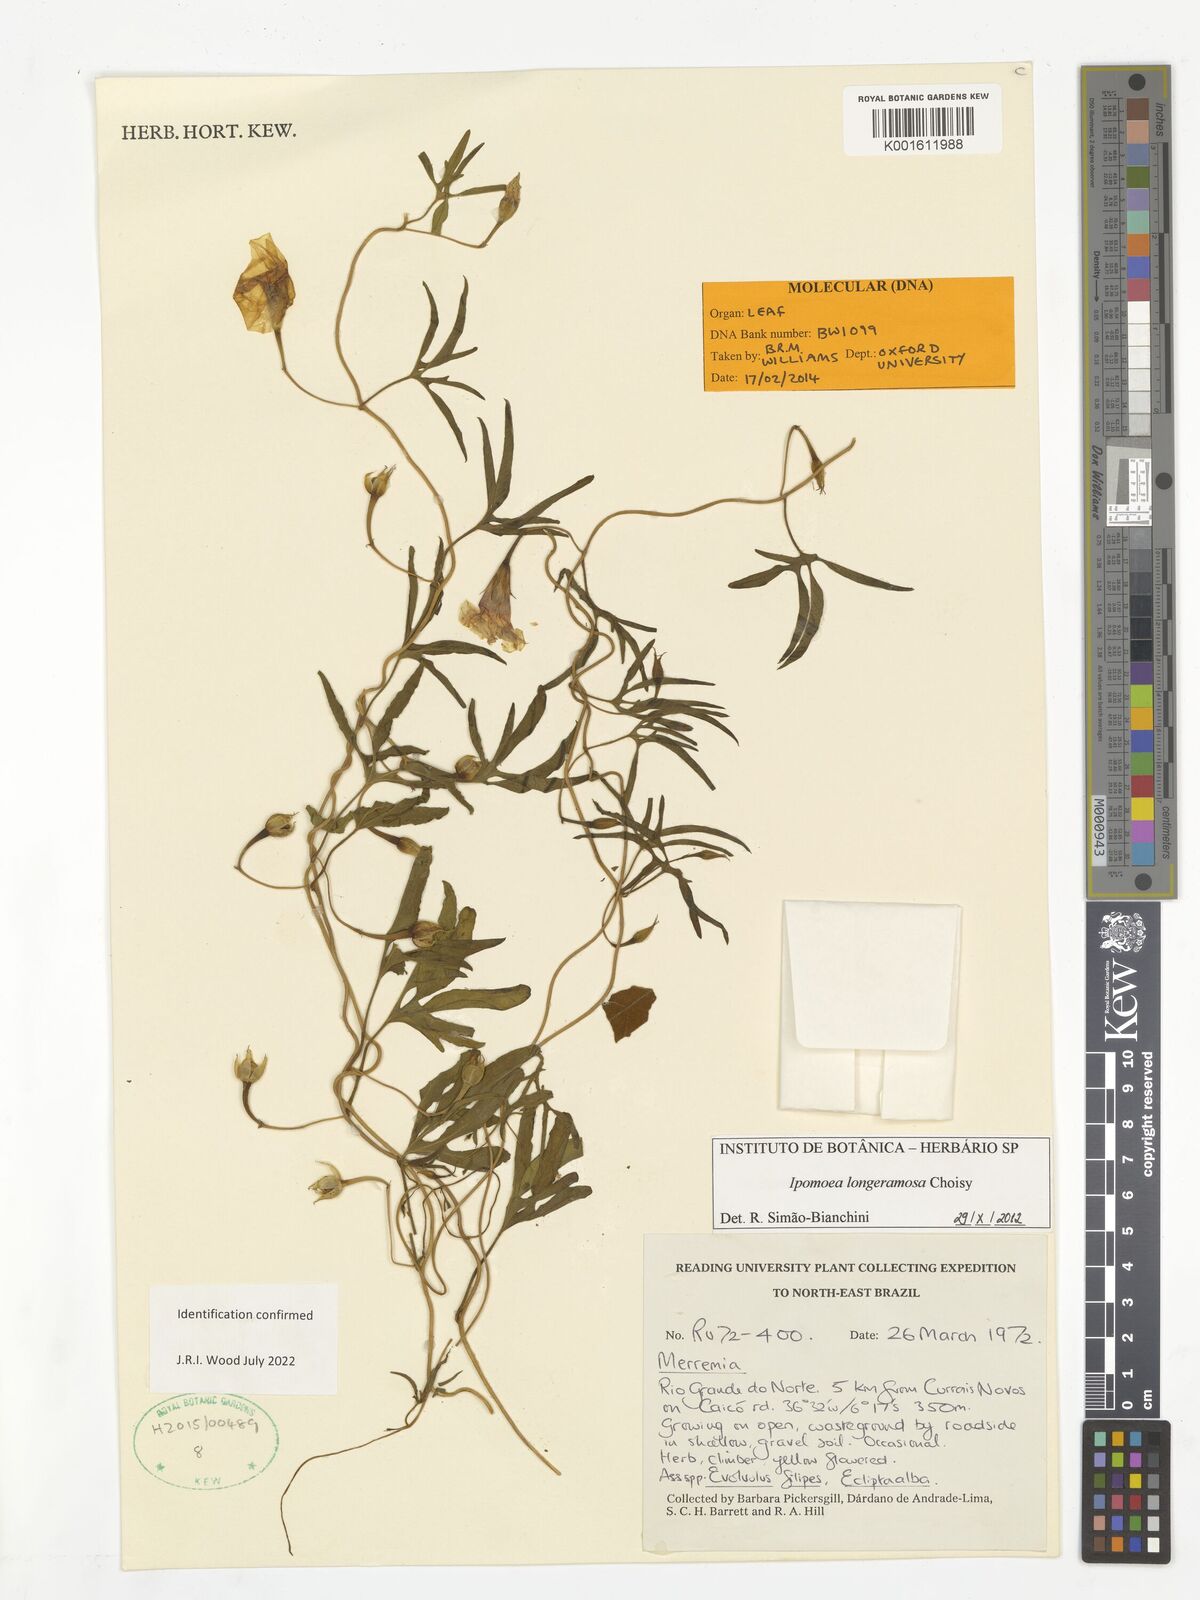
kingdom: Plantae
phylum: Tracheophyta
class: Magnoliopsida
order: Solanales
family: Convolvulaceae
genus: Ipomoea
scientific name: Ipomoea longeramosa
